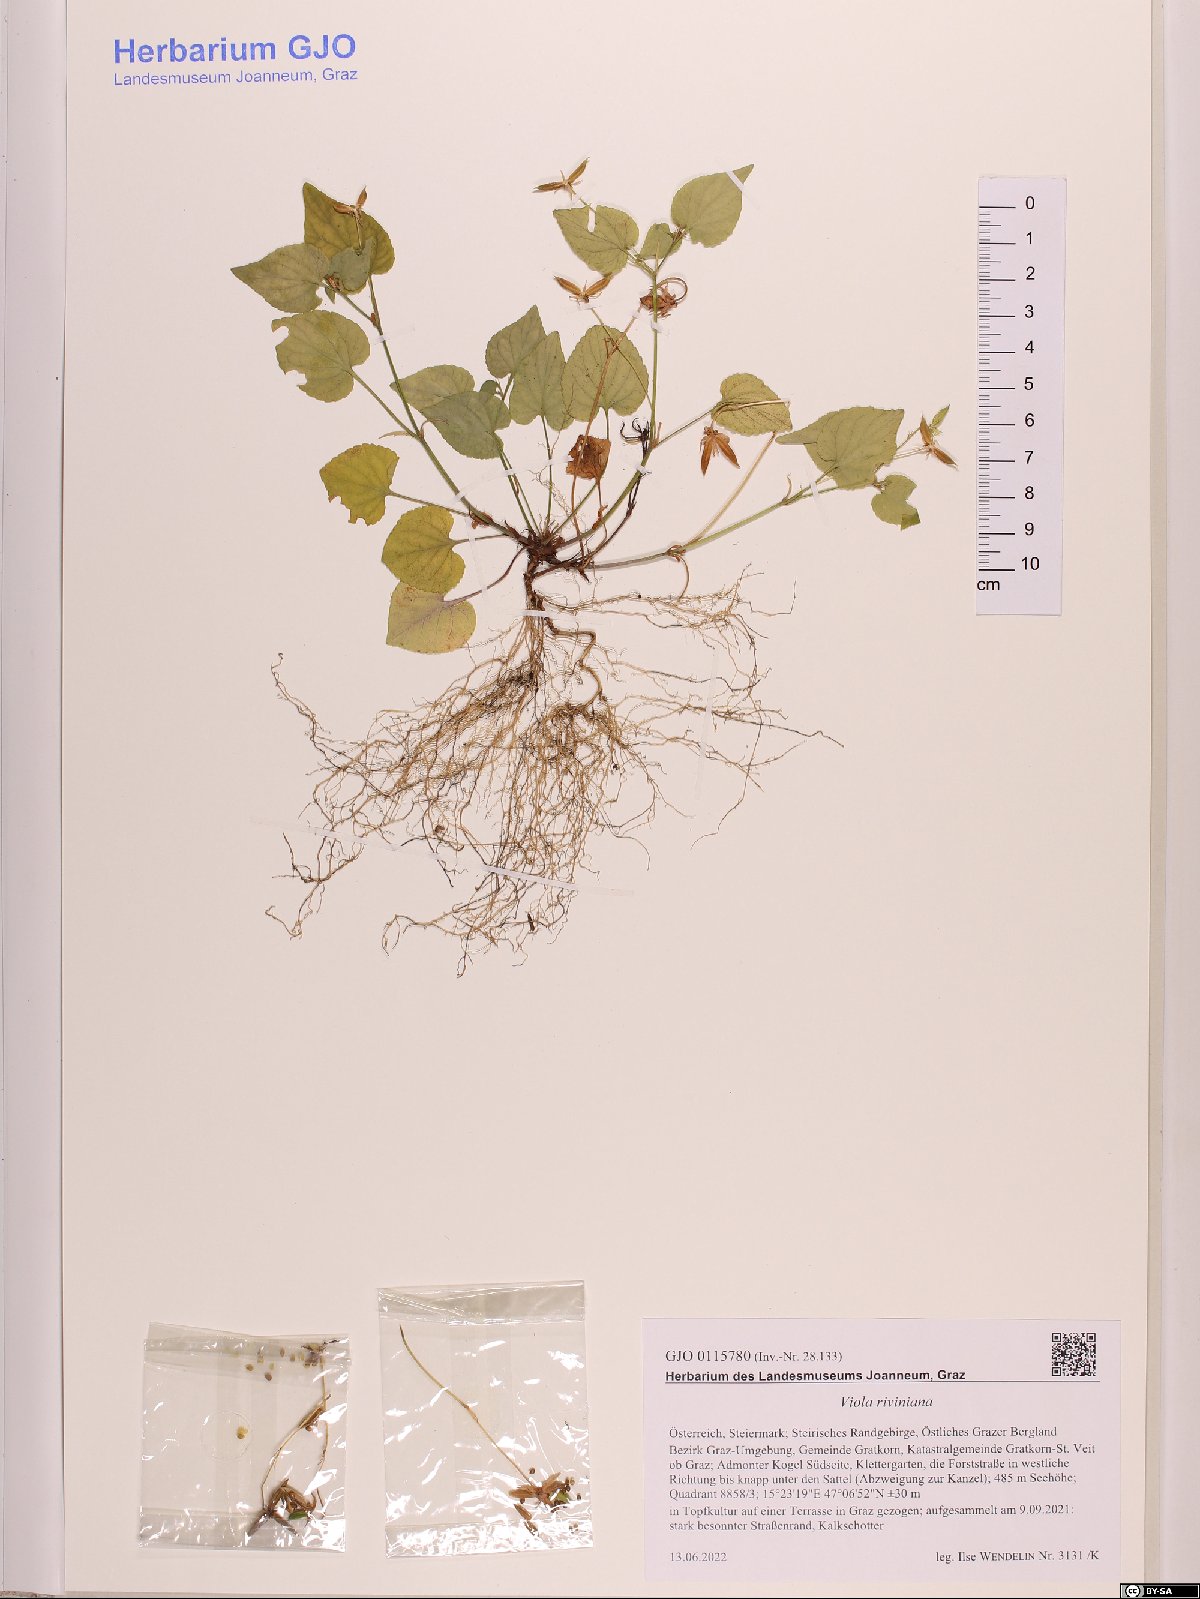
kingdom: Plantae
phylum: Tracheophyta
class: Magnoliopsida
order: Malpighiales
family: Violaceae
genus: Viola
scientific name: Viola riviniana
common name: Common dog-violet
